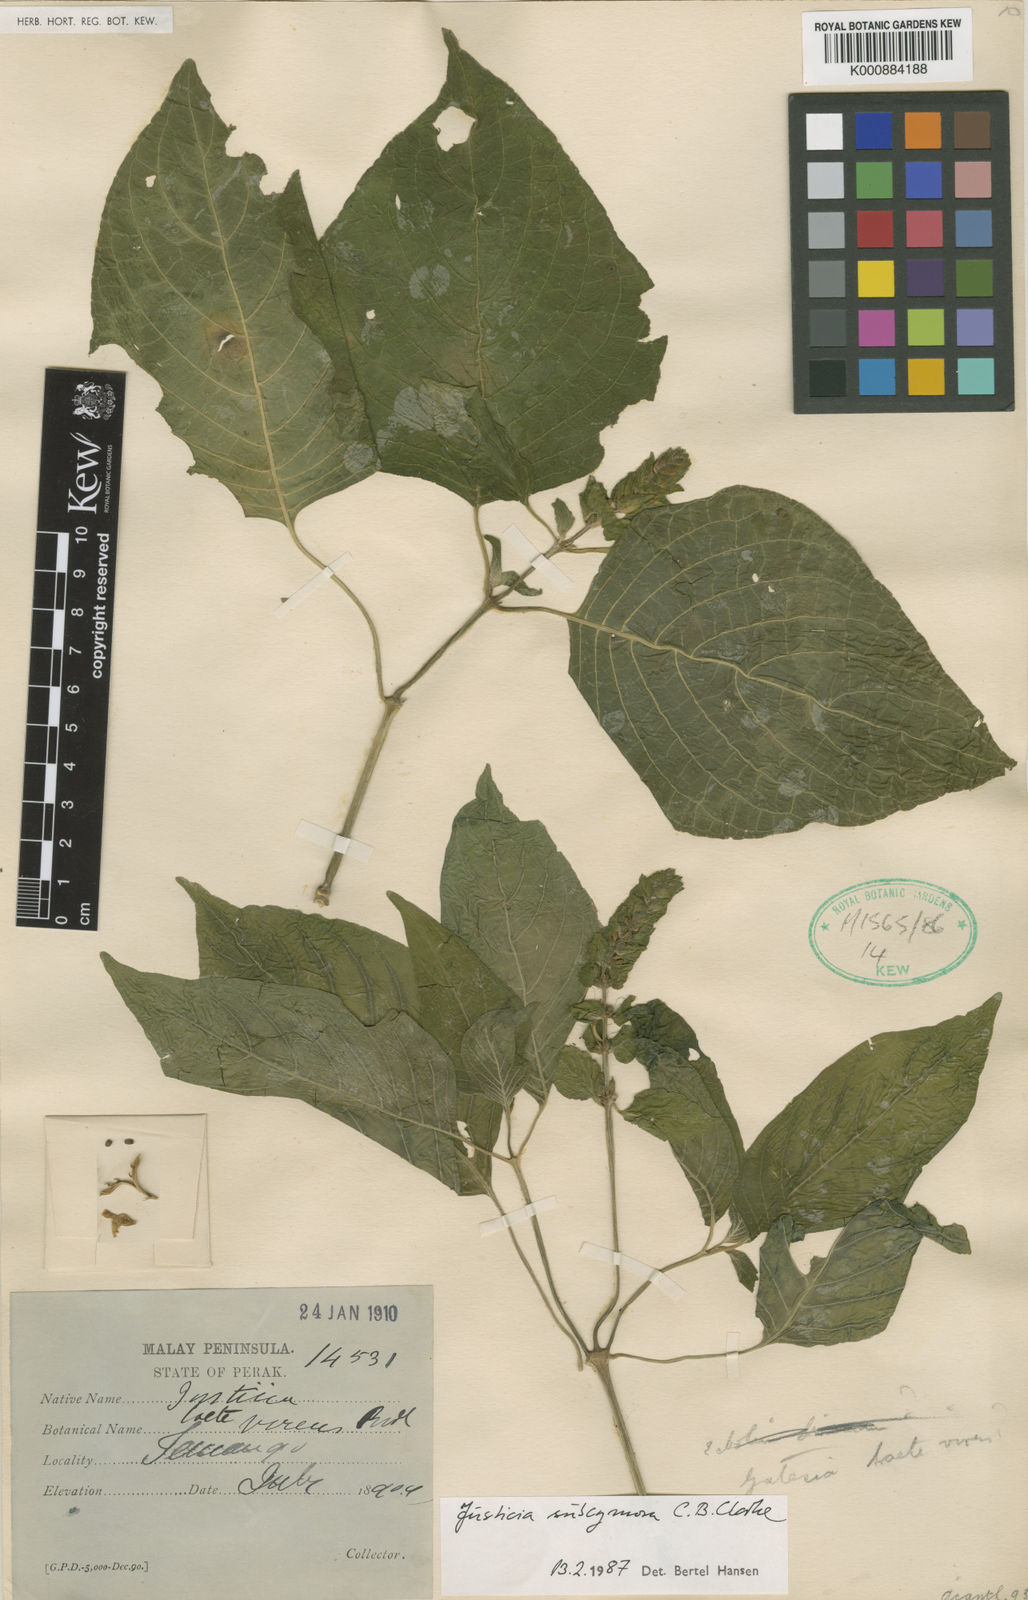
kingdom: Plantae
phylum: Tracheophyta
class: Magnoliopsida
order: Lamiales
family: Acanthaceae
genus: Justicia
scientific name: Justicia subcymosa
